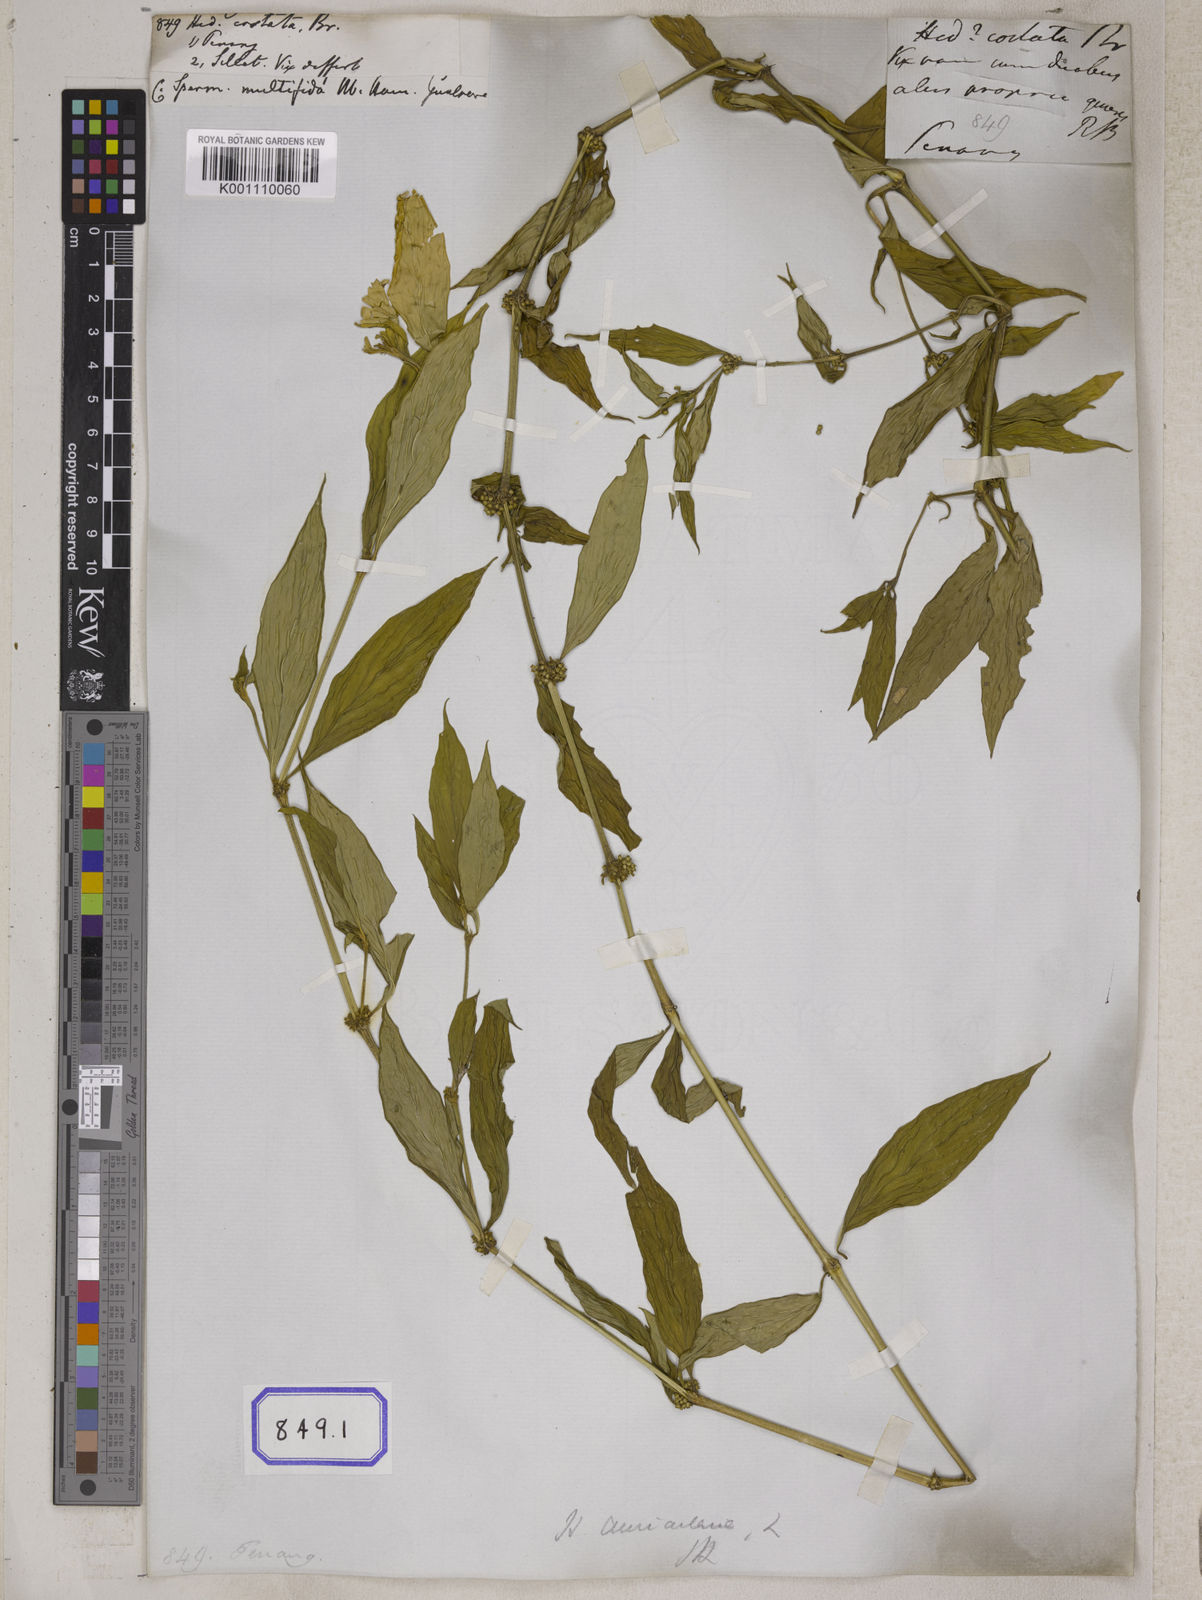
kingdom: Plantae
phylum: Tracheophyta
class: Magnoliopsida
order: Gentianales
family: Rubiaceae
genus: Hedyotis
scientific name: Hedyotis
